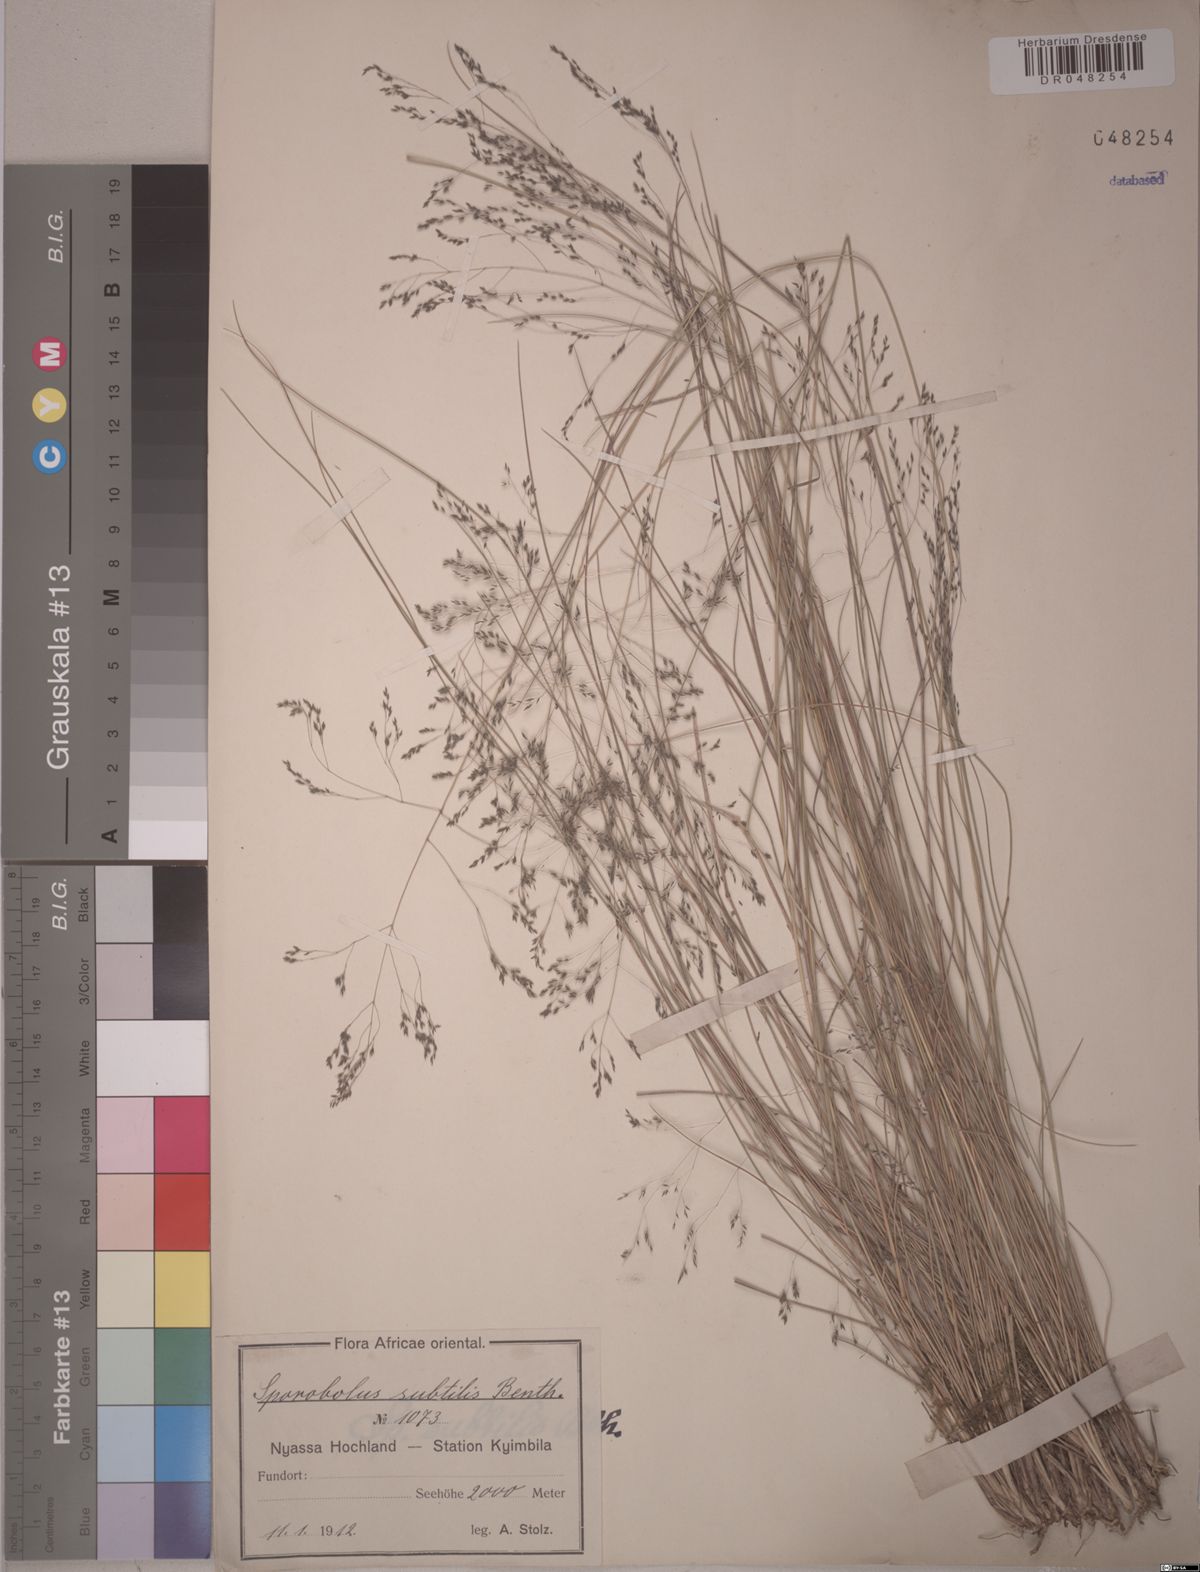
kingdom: Plantae
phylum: Tracheophyta
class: Liliopsida
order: Poales
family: Poaceae
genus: Sporobolus
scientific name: Sporobolus subtilis
